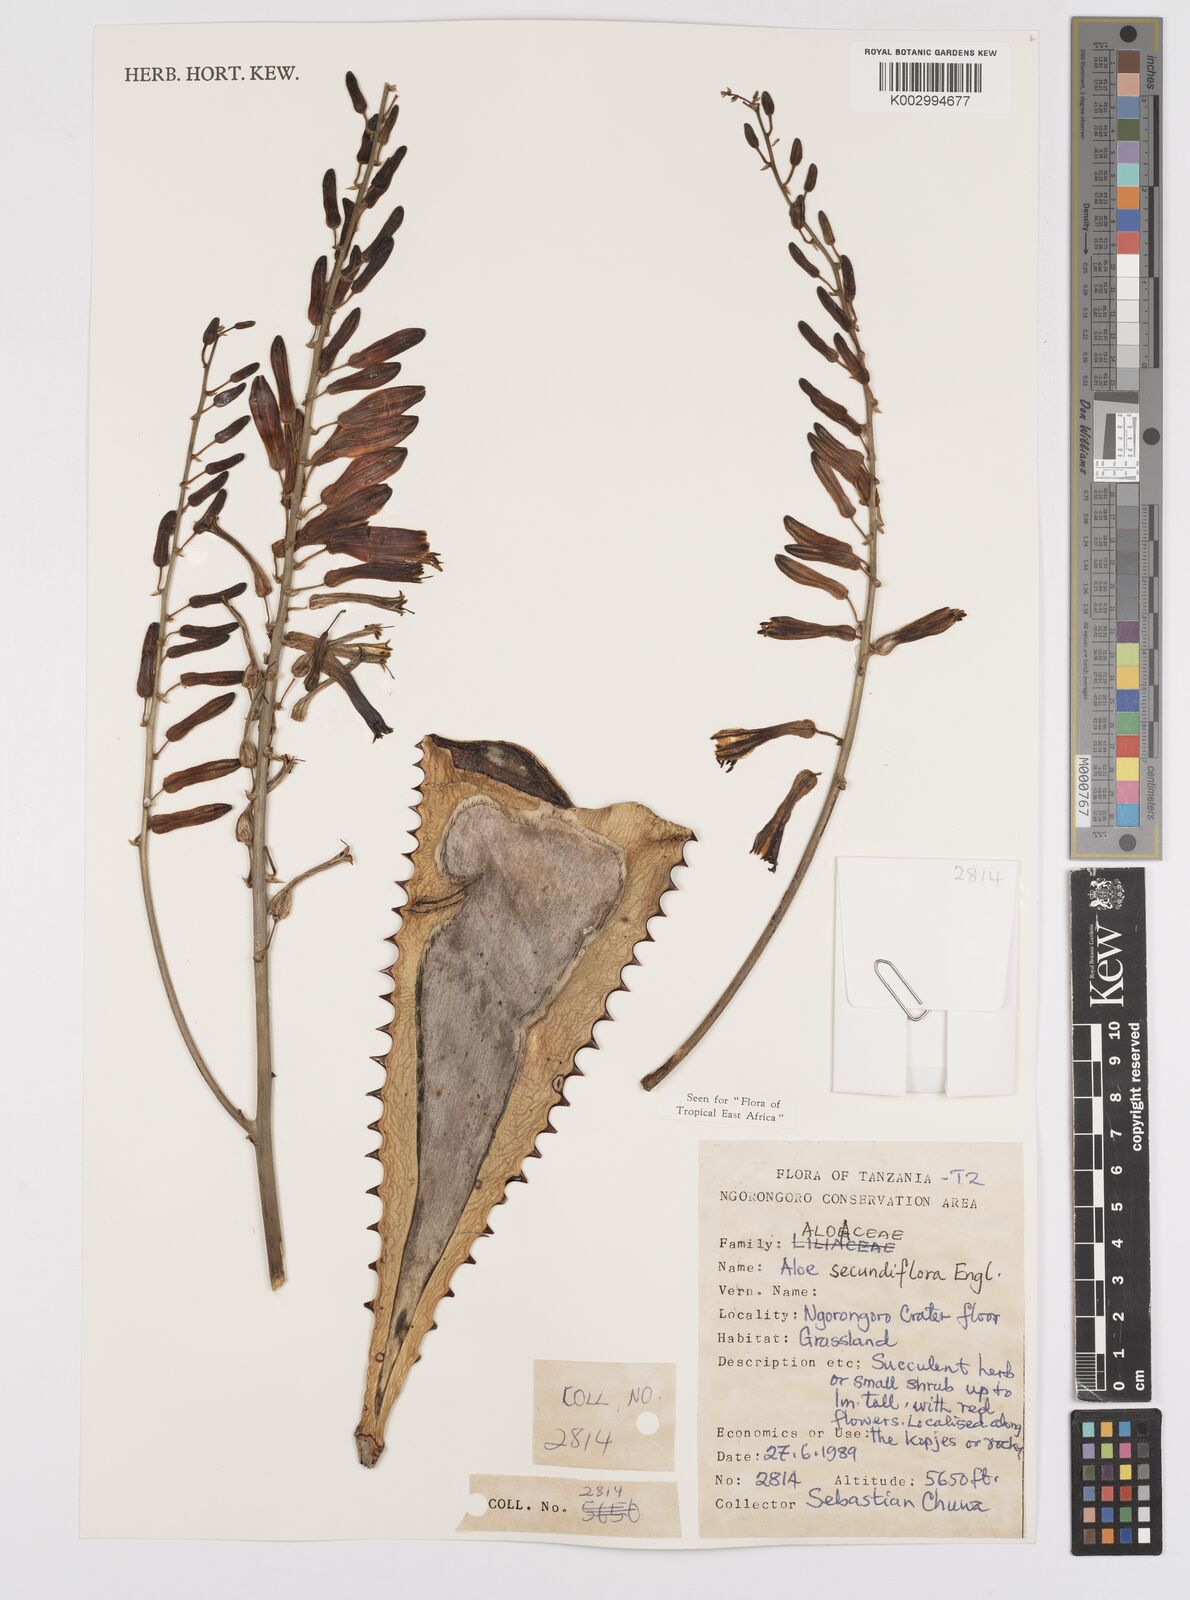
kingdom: Plantae
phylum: Tracheophyta
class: Liliopsida
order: Asparagales
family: Asphodelaceae
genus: Aloe
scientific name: Aloe secundiflora
